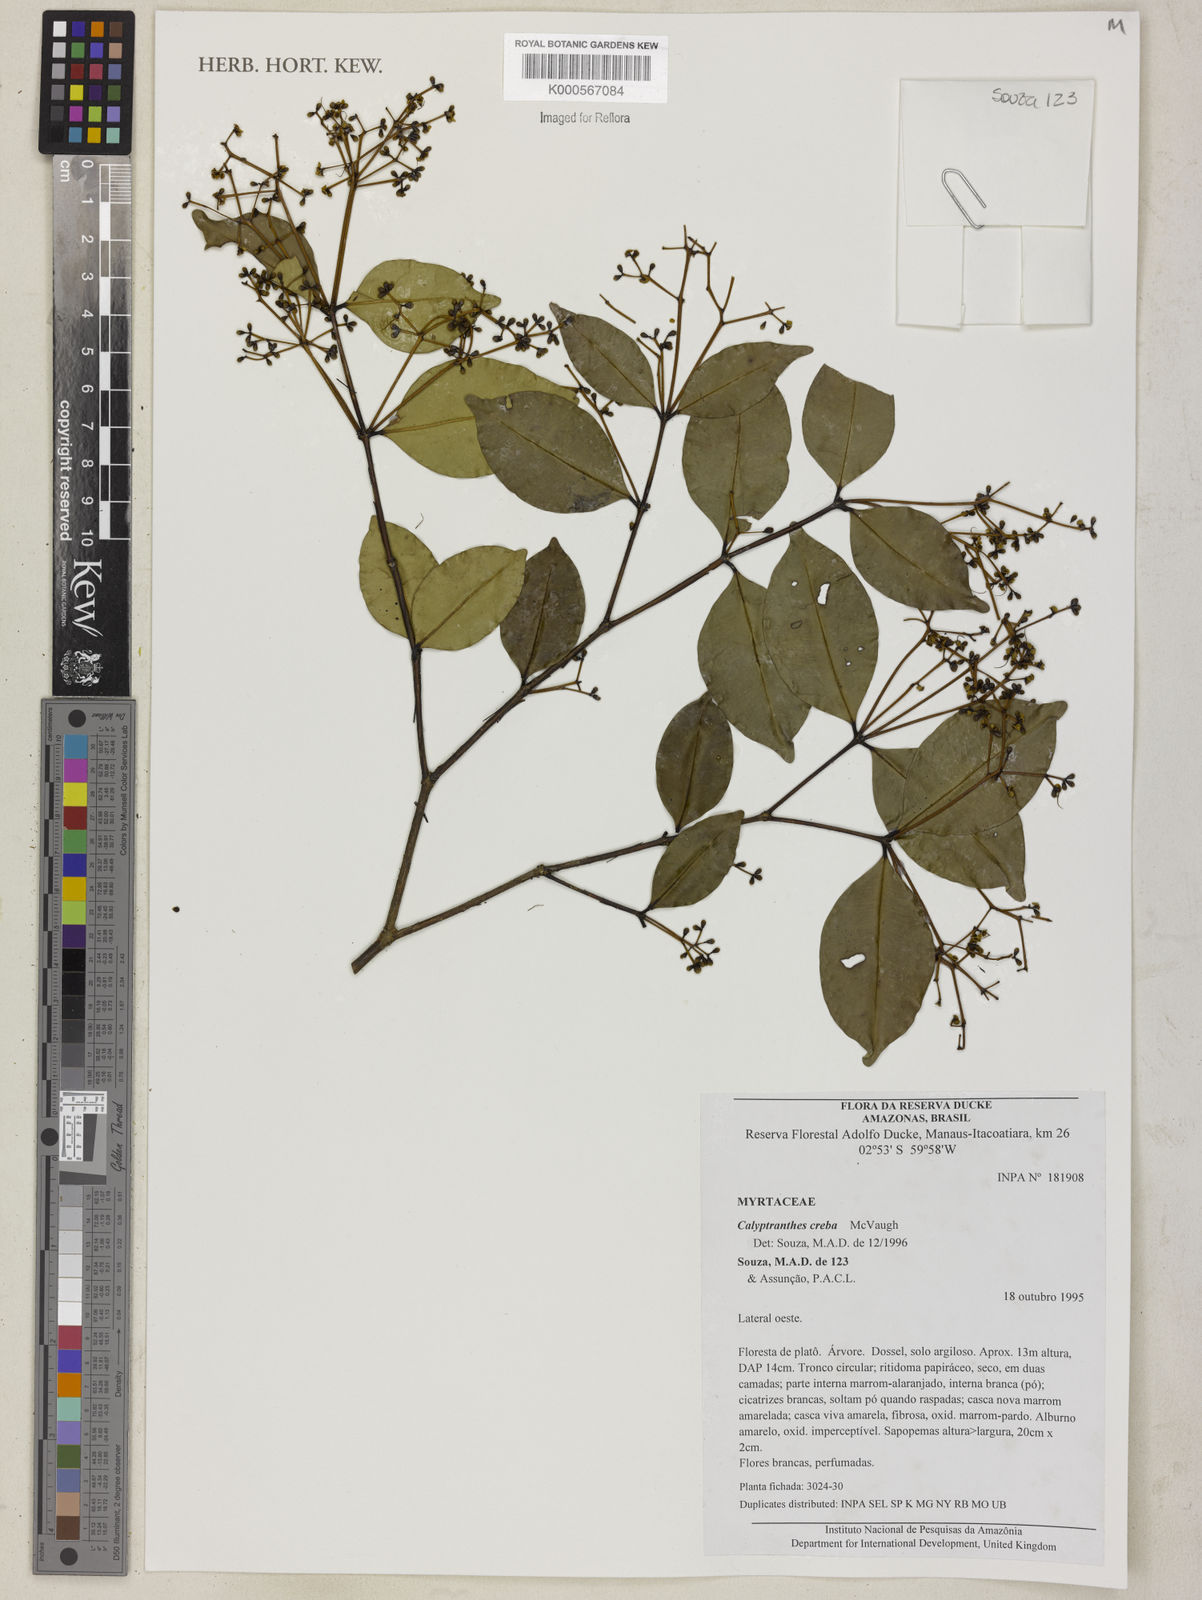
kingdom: Plantae
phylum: Tracheophyta
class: Magnoliopsida
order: Myrtales
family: Myrtaceae
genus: Myrcia
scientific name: Myrcia crebra
